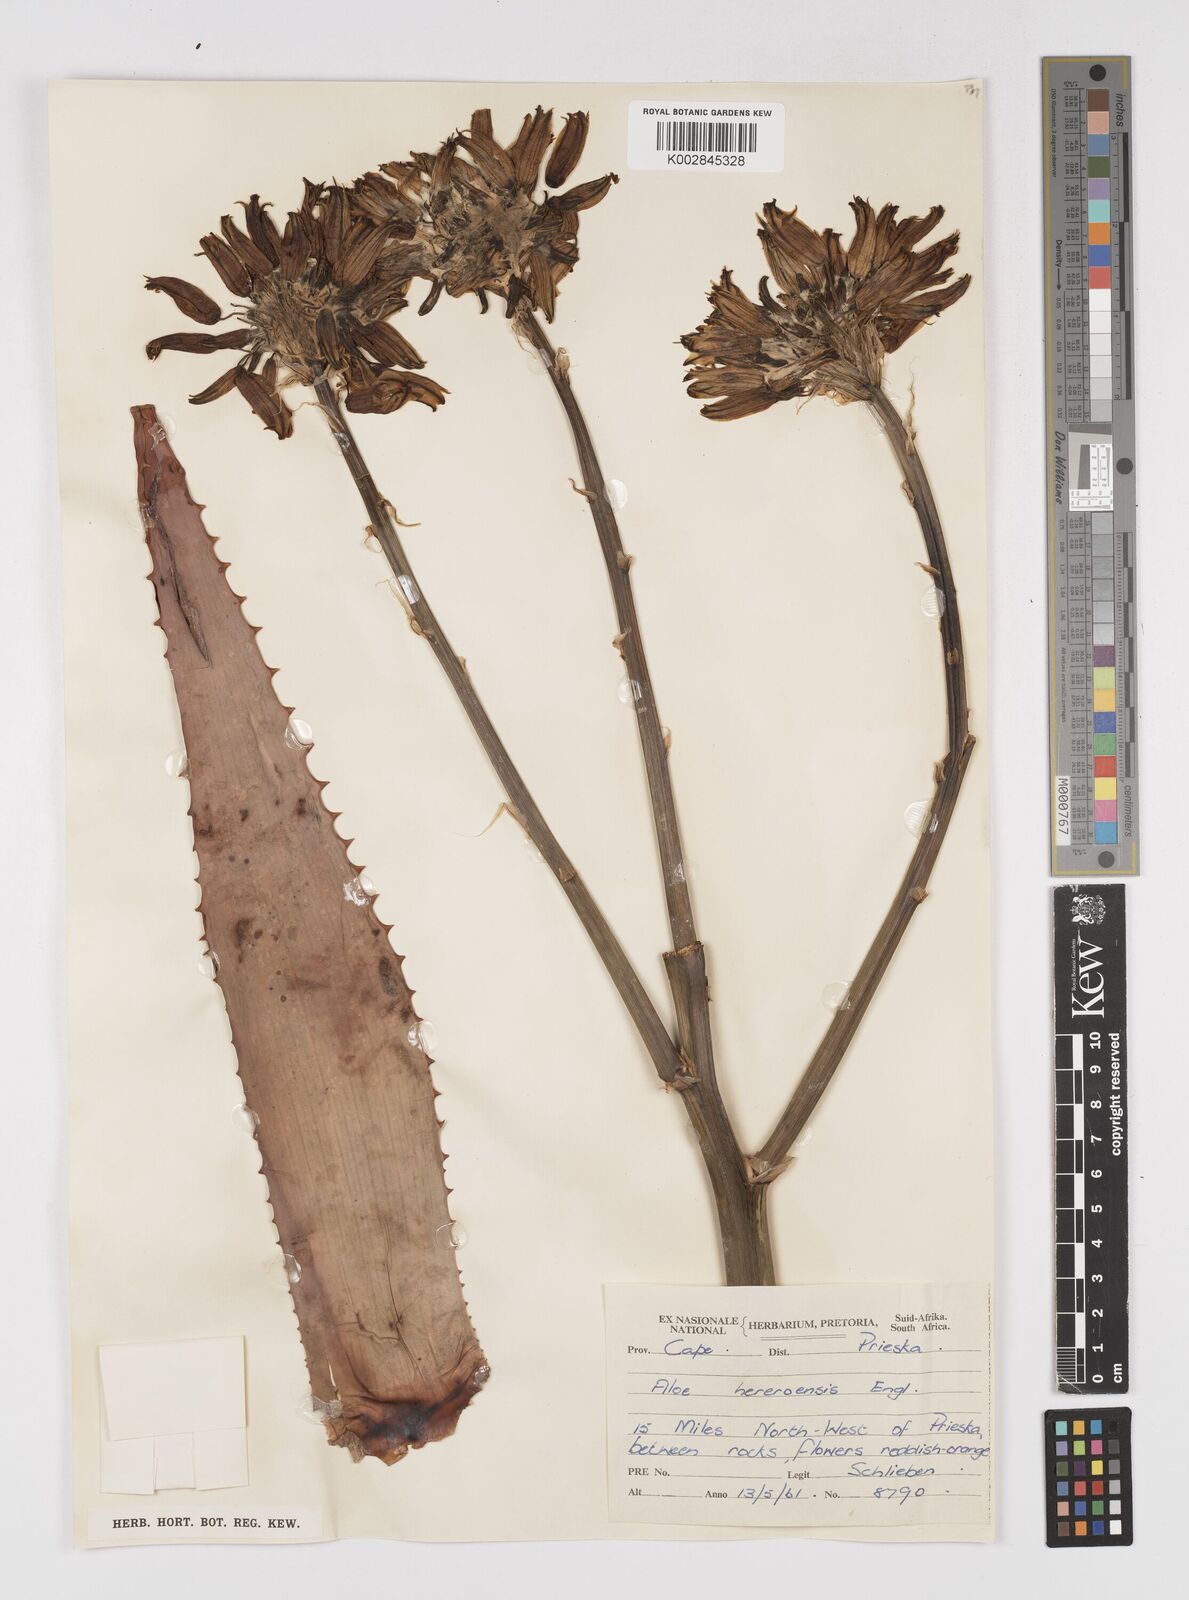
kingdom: Plantae
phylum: Tracheophyta
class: Liliopsida
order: Asparagales
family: Asphodelaceae
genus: Aloe
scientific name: Aloe hereroensis
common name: Herero aloe
